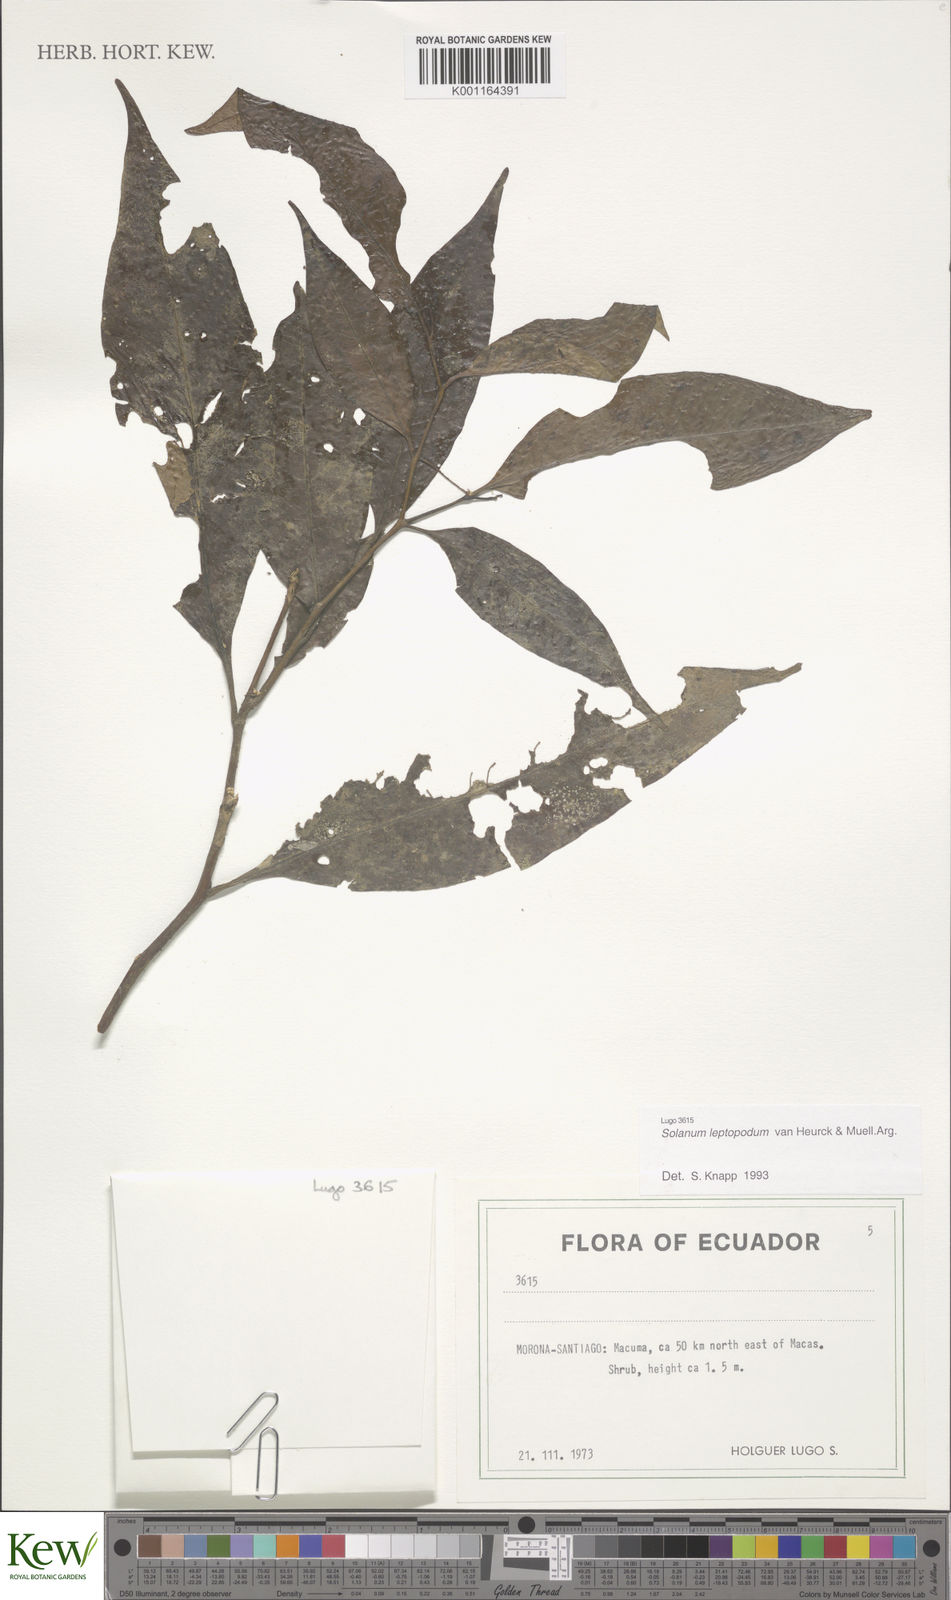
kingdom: Plantae
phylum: Tracheophyta
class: Magnoliopsida
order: Solanales
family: Solanaceae
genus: Solanum
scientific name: Solanum leptopodum
